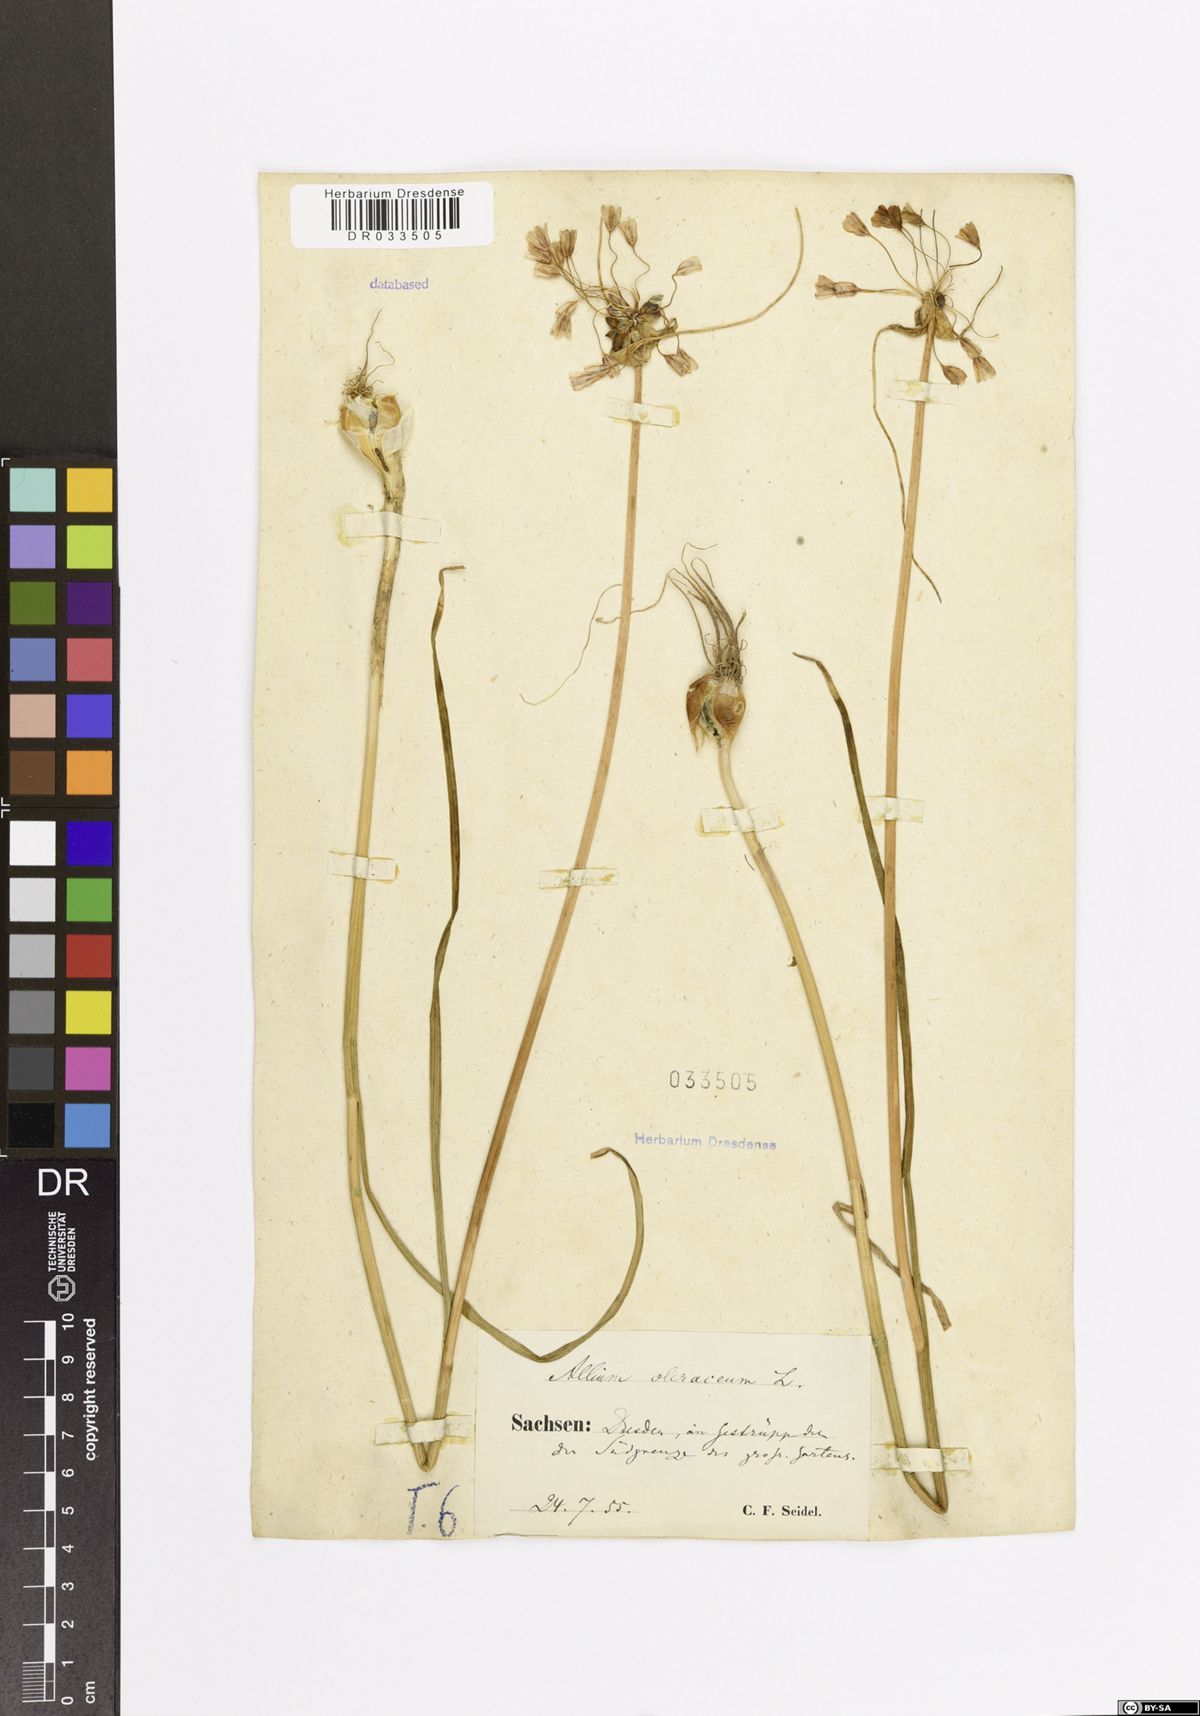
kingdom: Plantae
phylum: Tracheophyta
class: Liliopsida
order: Asparagales
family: Amaryllidaceae
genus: Allium
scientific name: Allium oleraceum
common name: Field garlic
